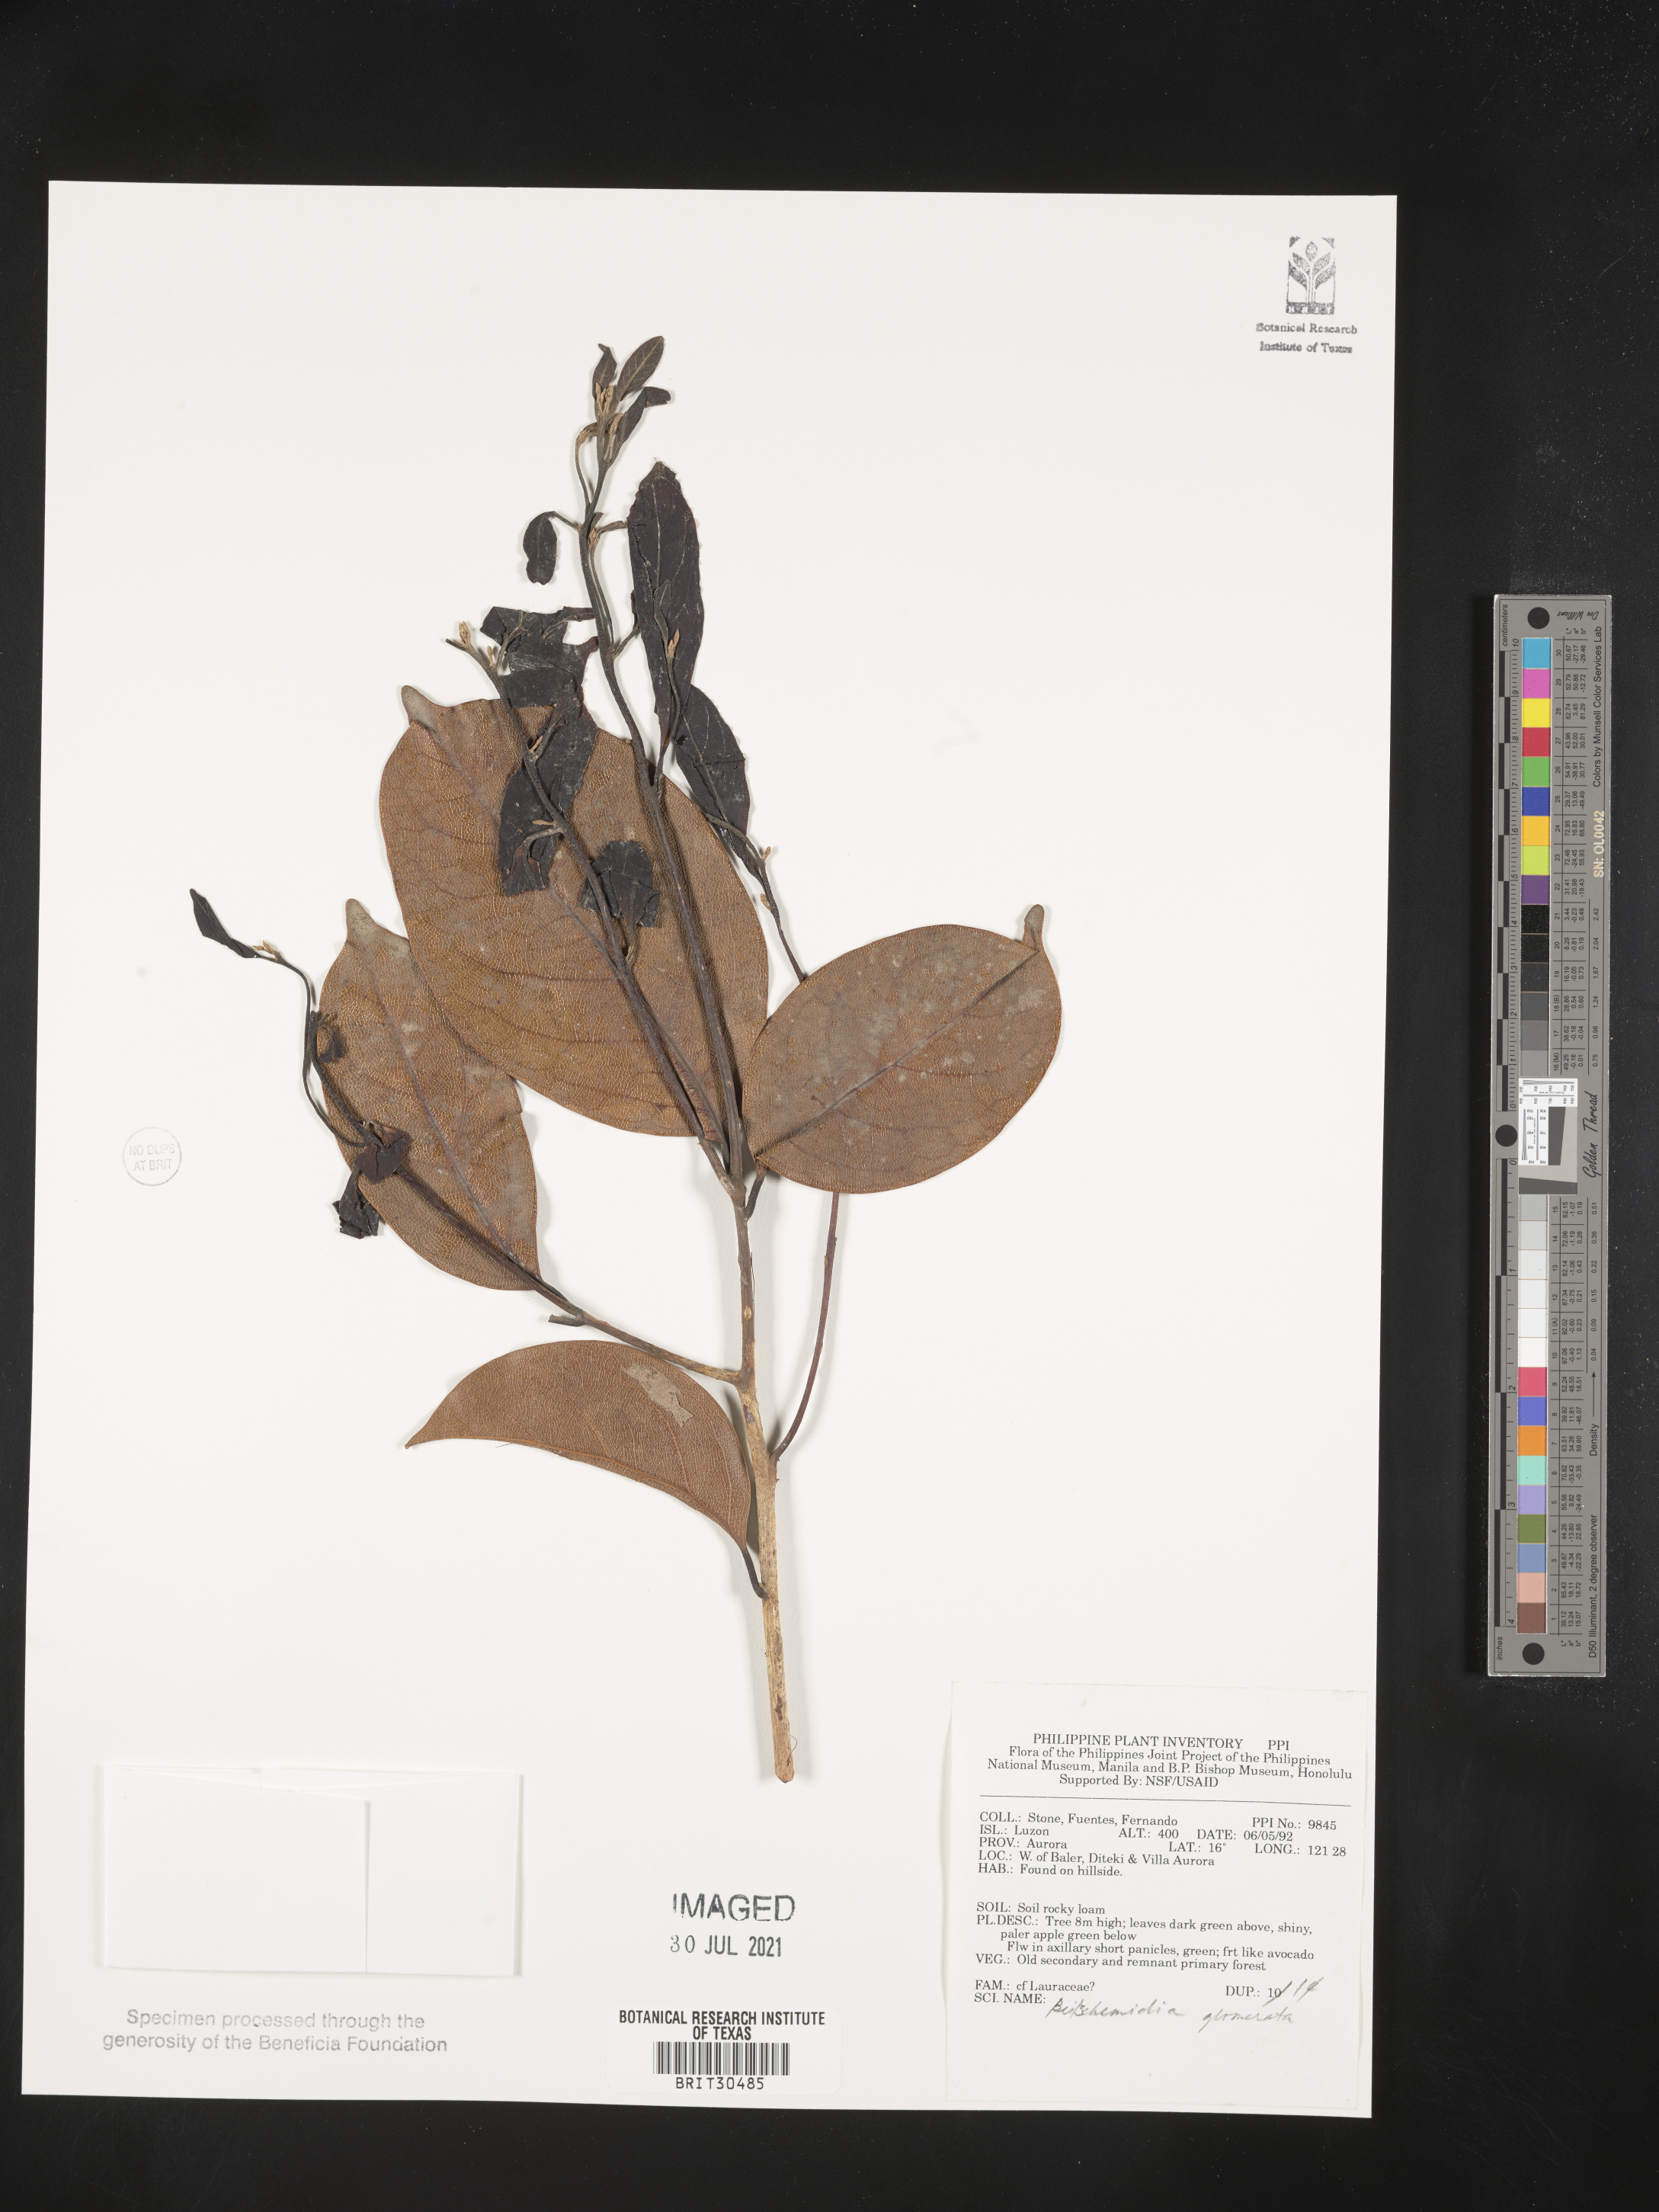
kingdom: Plantae
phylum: Tracheophyta
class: Magnoliopsida
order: Laurales
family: Lauraceae
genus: Beilschmiedia
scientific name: Beilschmiedia gemmiflora
